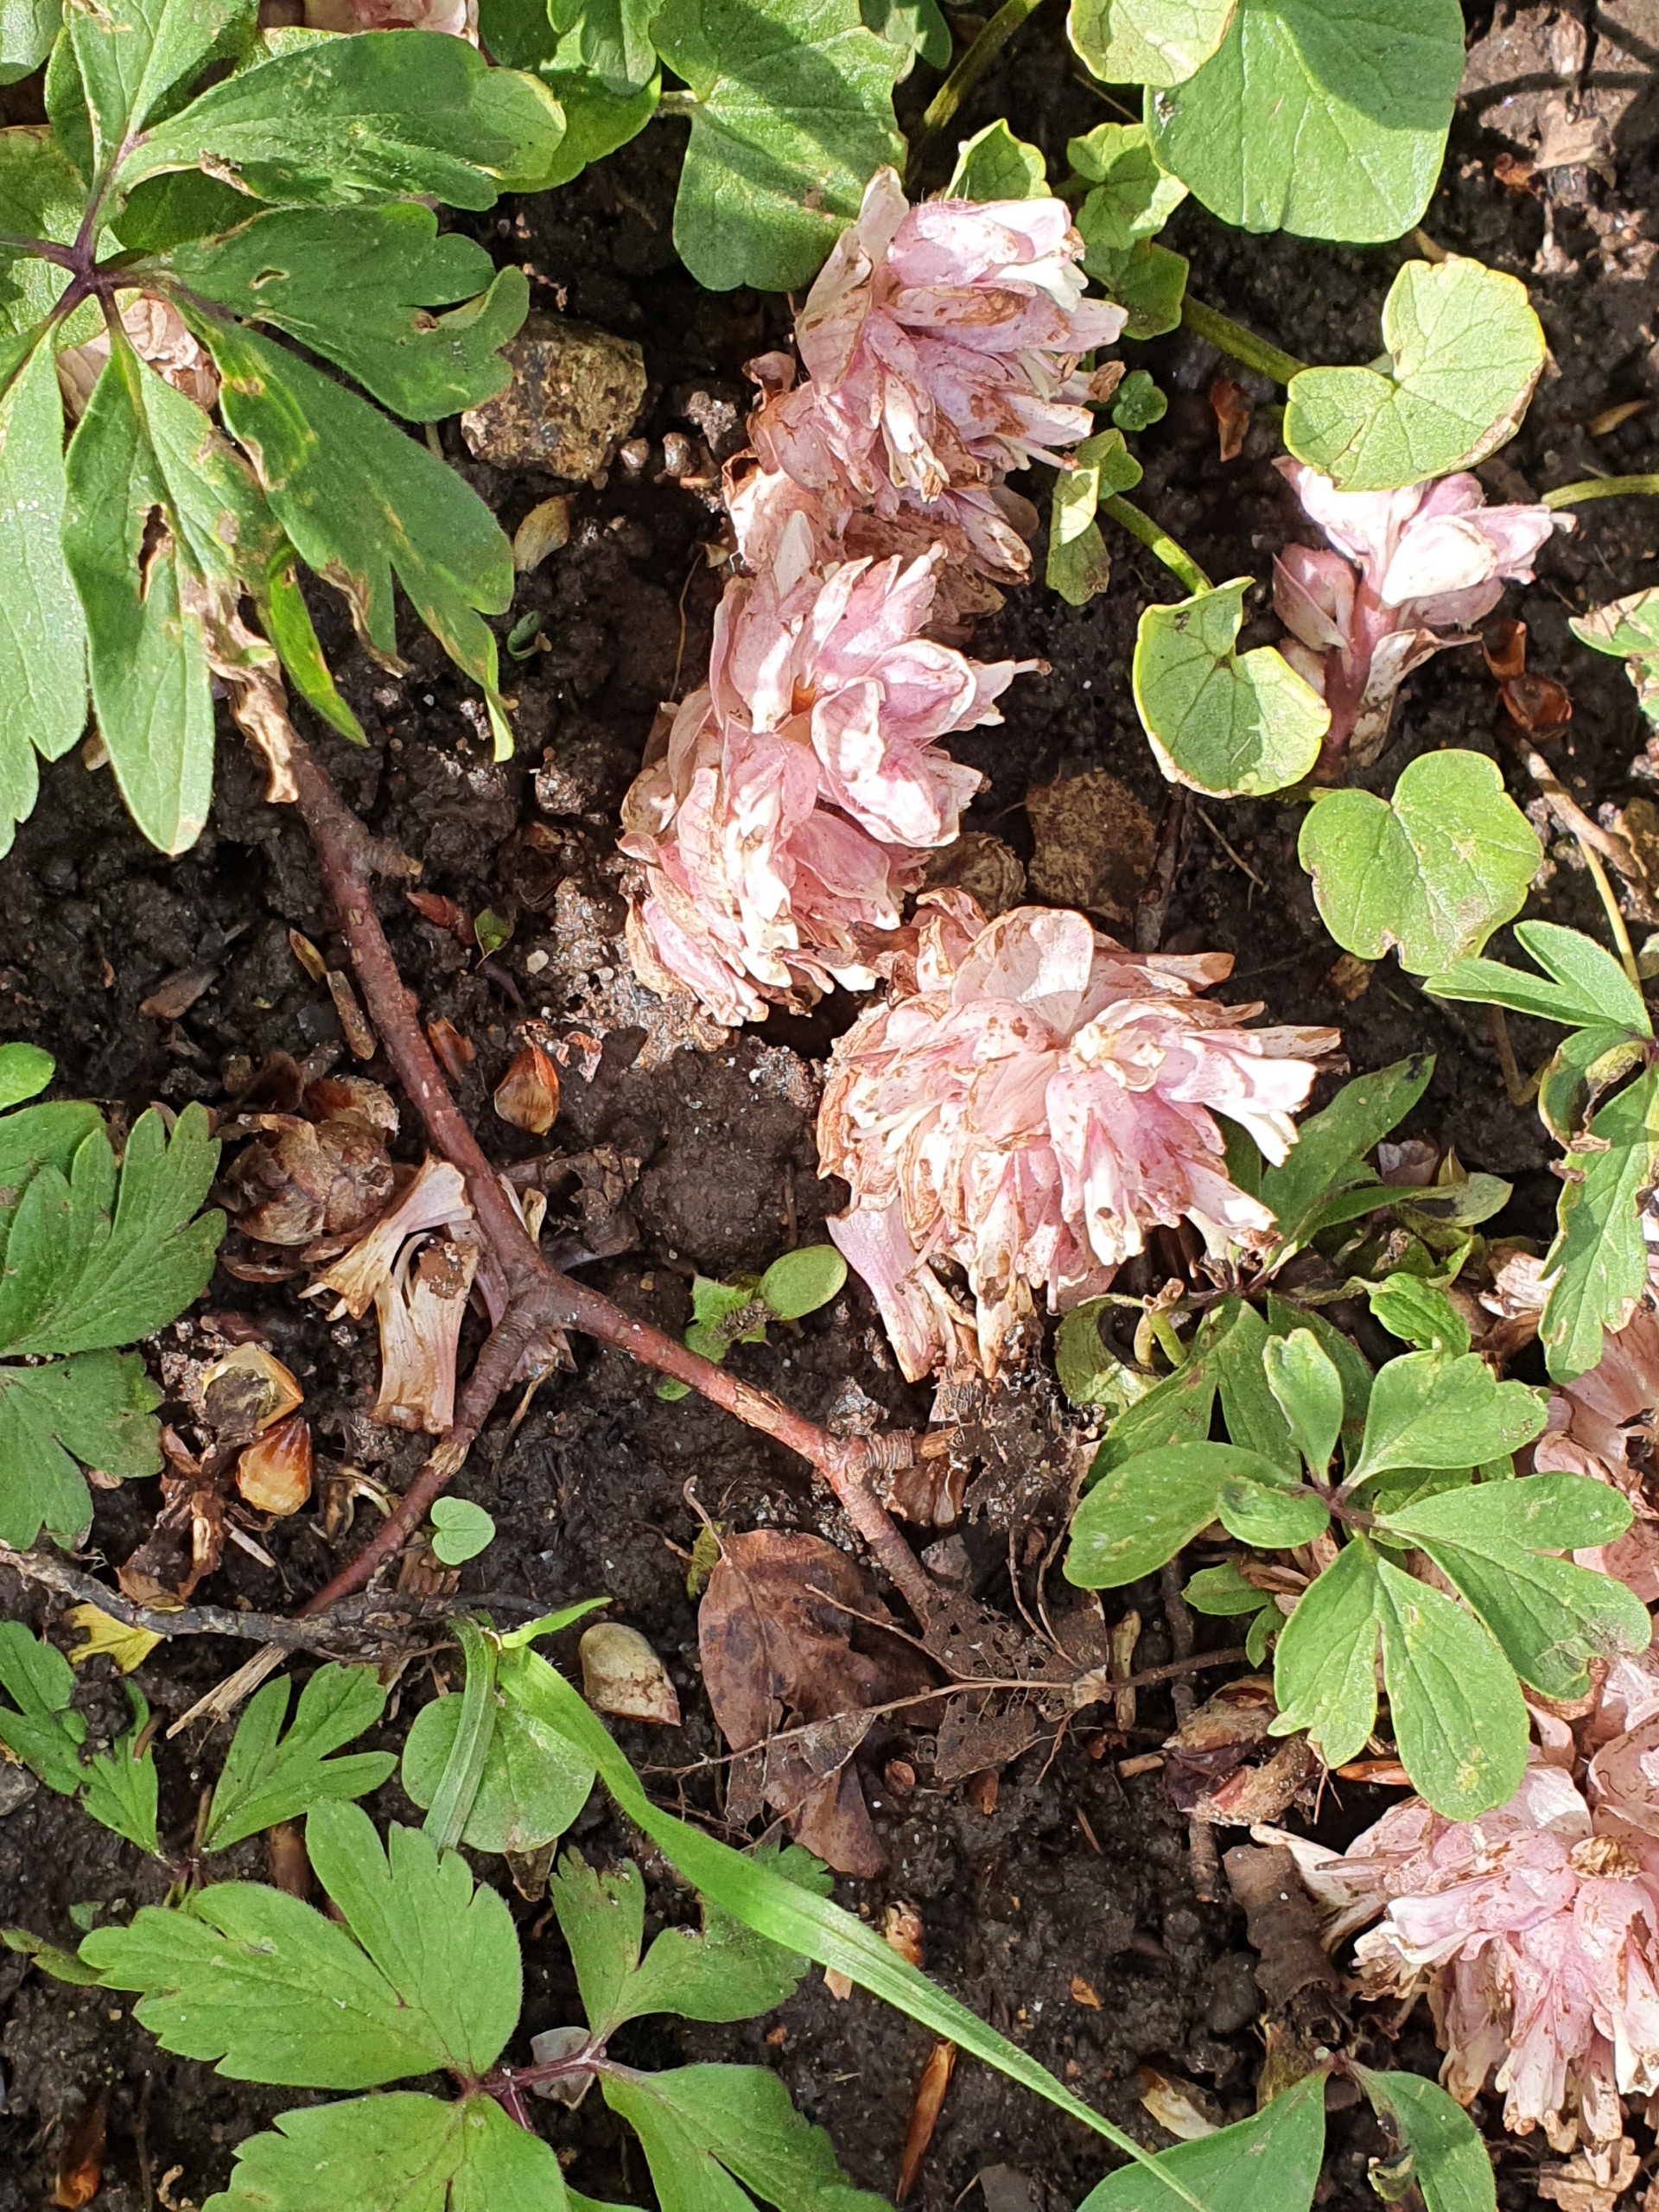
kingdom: Plantae
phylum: Tracheophyta
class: Magnoliopsida
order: Lamiales
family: Orobanchaceae
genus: Lathraea
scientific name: Lathraea squamaria
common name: Skælrod
